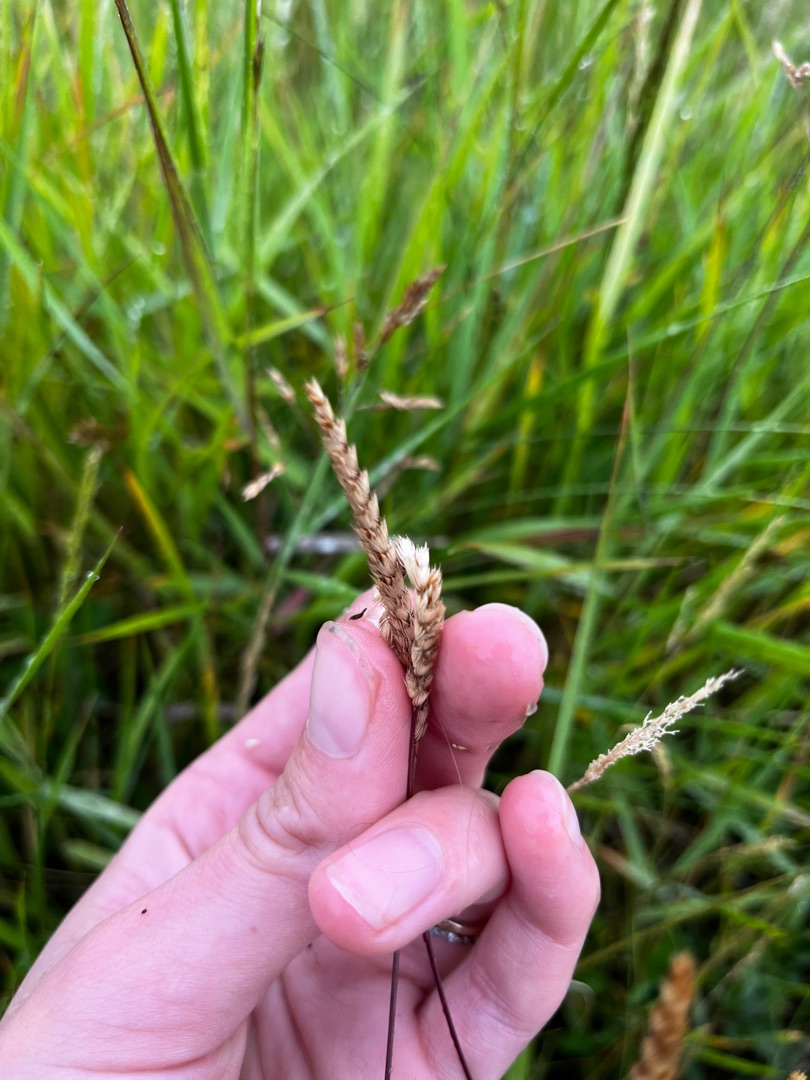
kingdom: Plantae
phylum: Tracheophyta
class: Liliopsida
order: Poales
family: Poaceae
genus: Cynosurus
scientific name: Cynosurus cristatus
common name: Kamgræs
